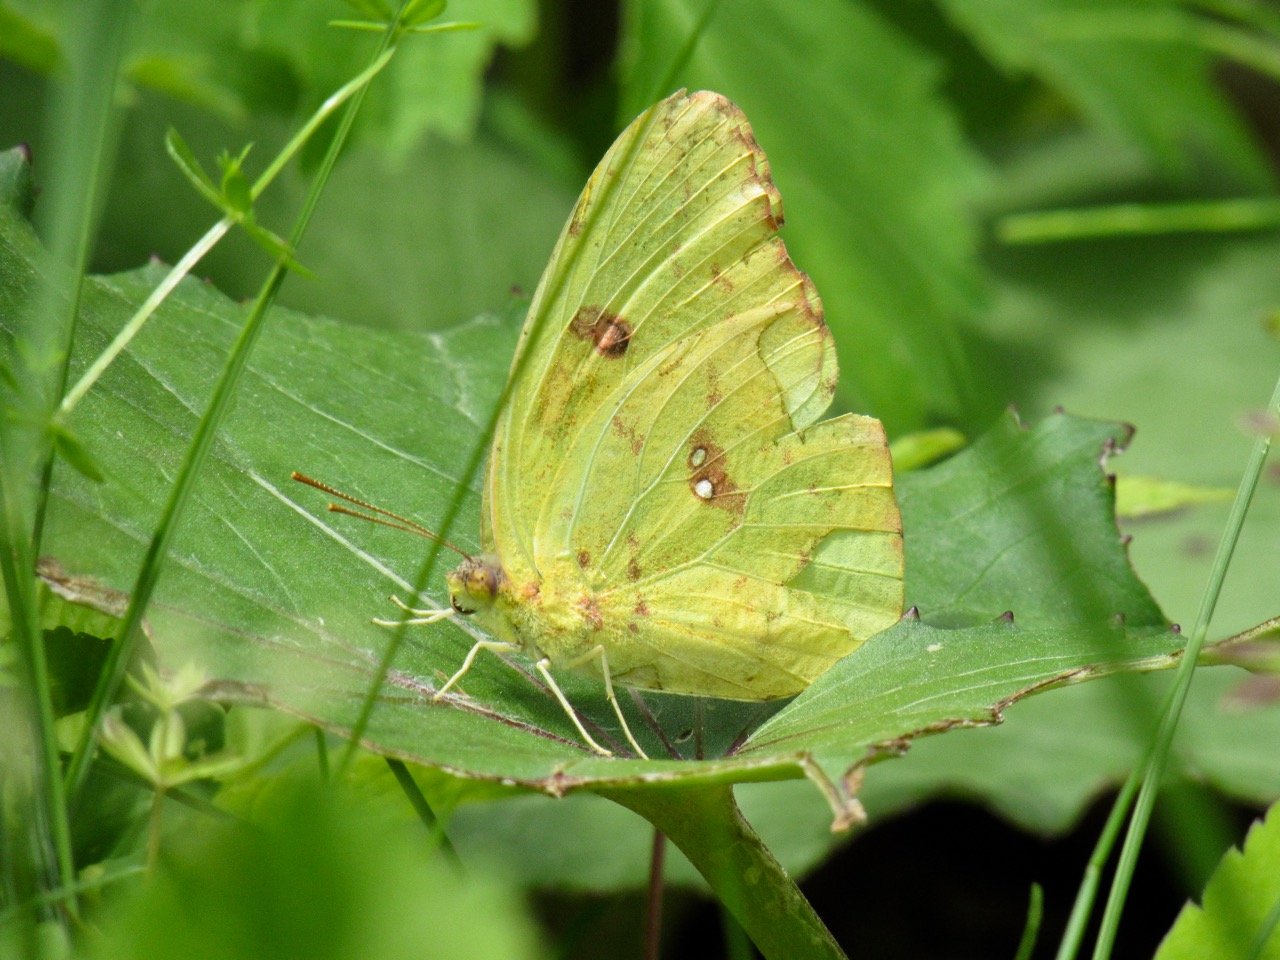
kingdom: Animalia
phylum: Arthropoda
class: Insecta
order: Lepidoptera
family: Pieridae
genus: Phoebis
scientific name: Phoebis sennae
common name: Cloudless Sulphur
